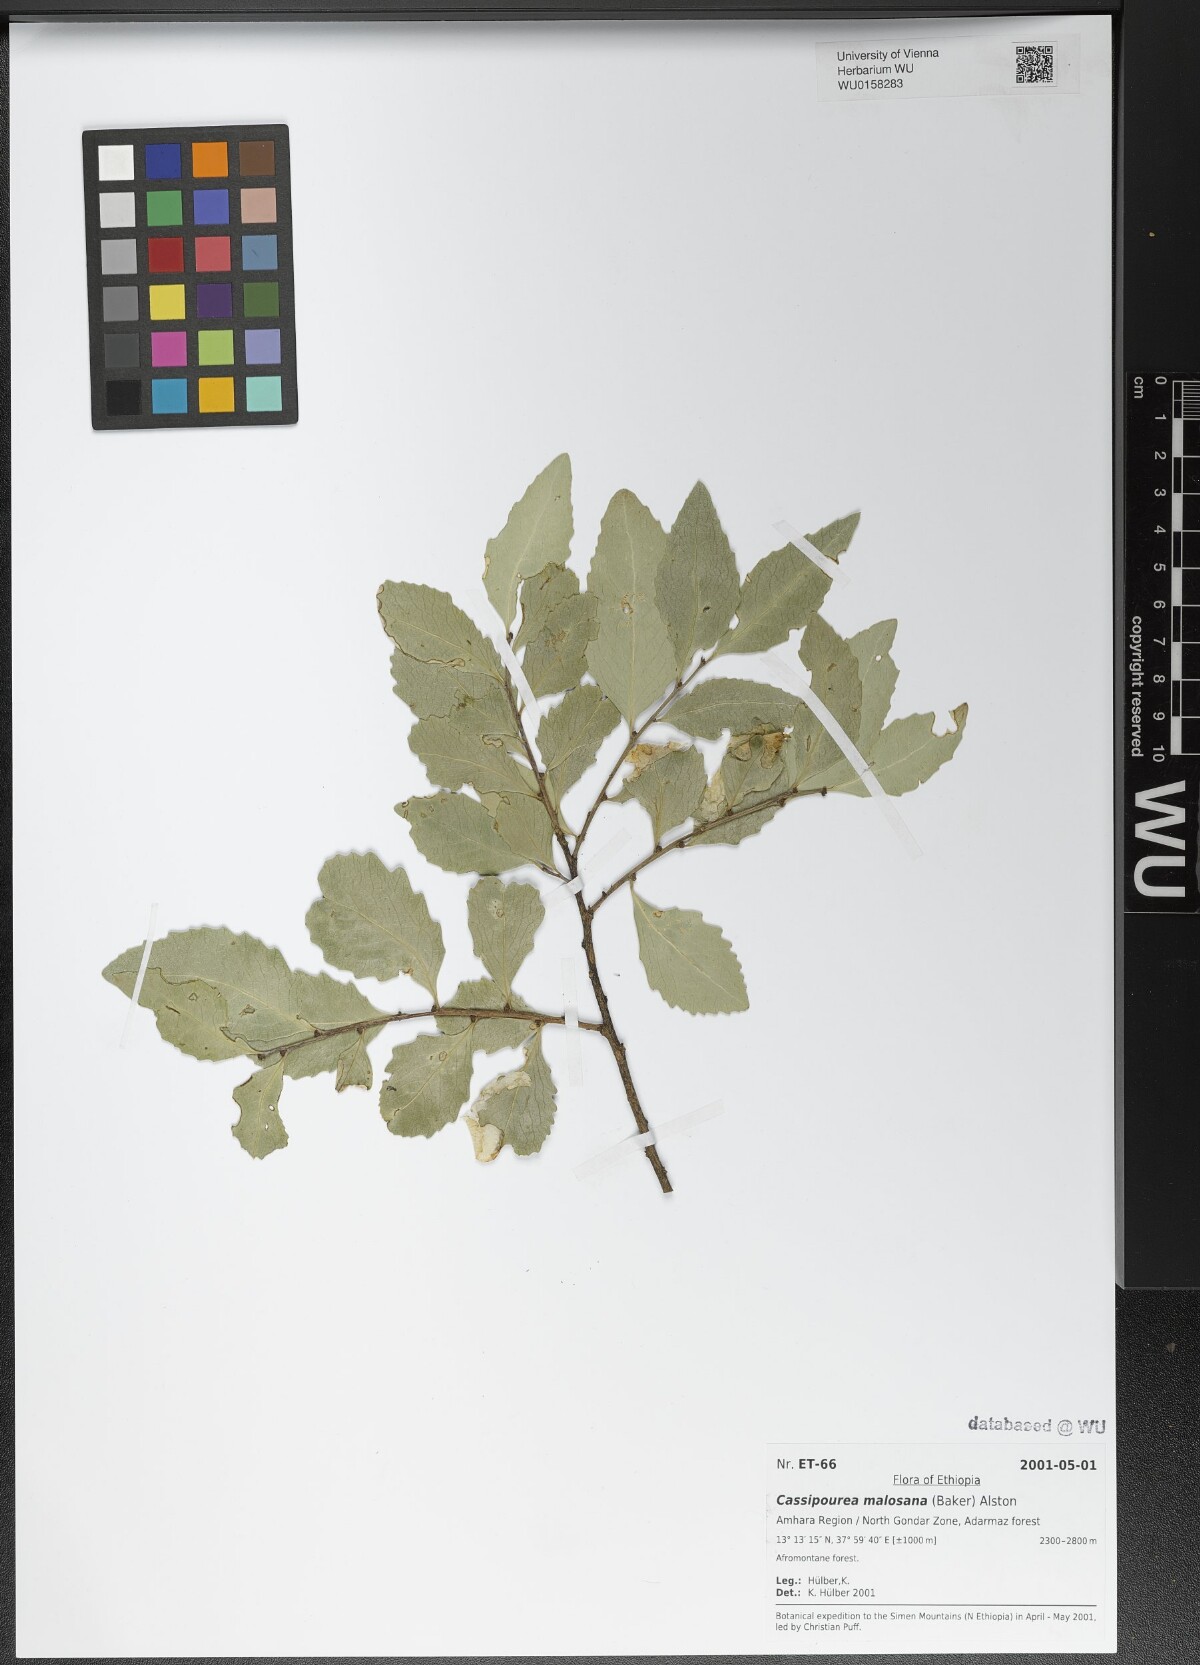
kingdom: Plantae
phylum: Tracheophyta
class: Magnoliopsida
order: Malpighiales
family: Rhizophoraceae
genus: Cassipourea
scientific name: Cassipourea malosana
